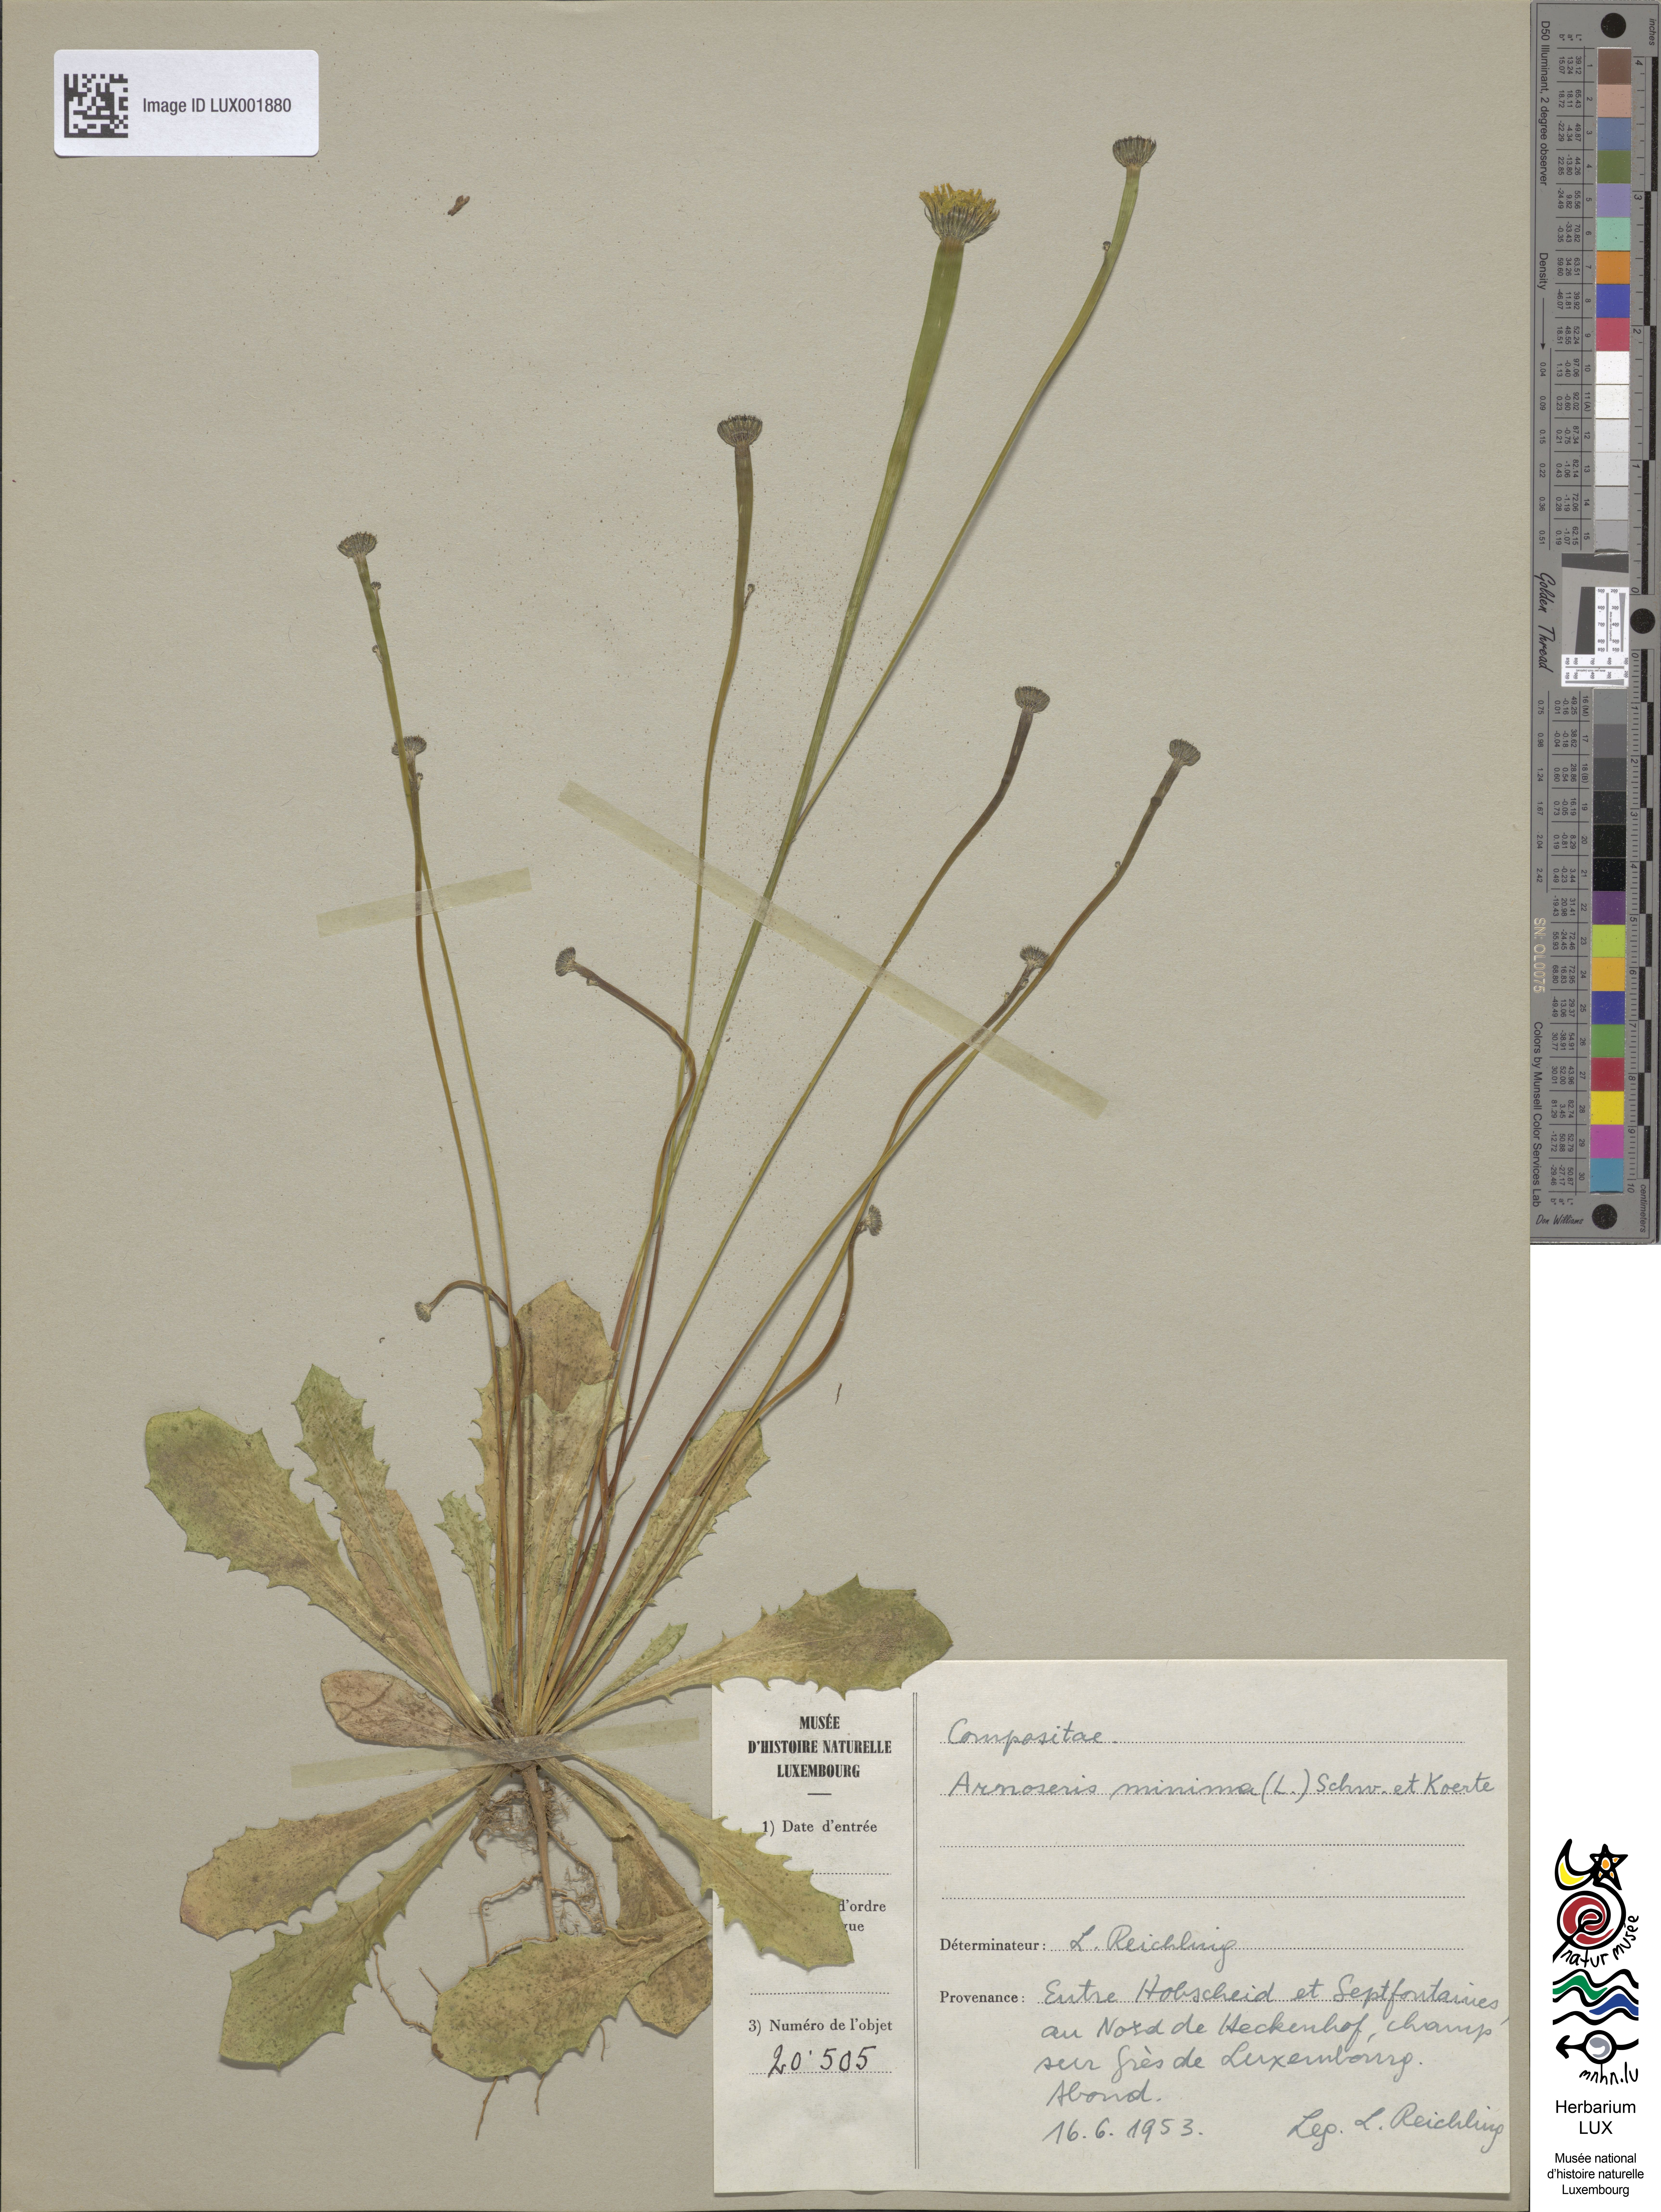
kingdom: Plantae
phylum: Tracheophyta
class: Magnoliopsida
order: Asterales
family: Asteraceae
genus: Arnoseris
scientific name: Arnoseris minima
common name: Lamb's succory
